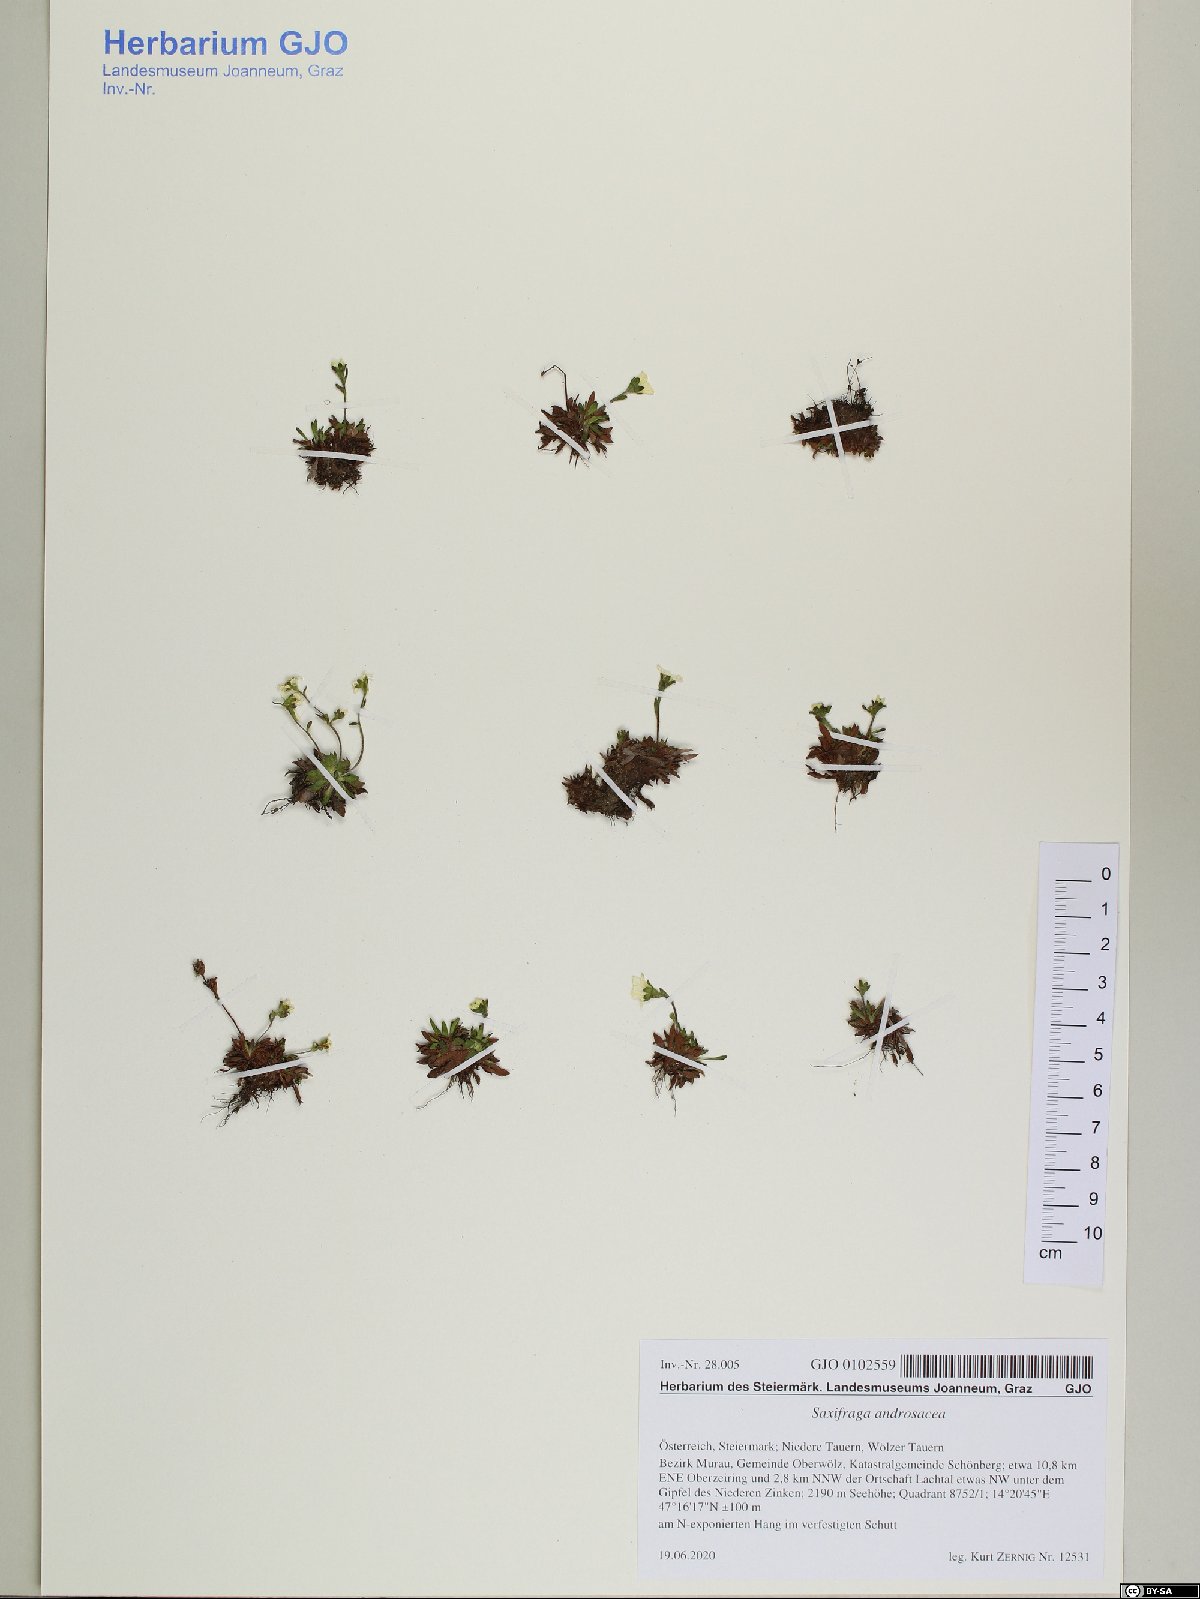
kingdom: Plantae
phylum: Tracheophyta
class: Magnoliopsida
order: Saxifragales
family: Saxifragaceae
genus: Saxifraga
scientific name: Saxifraga androsacea
